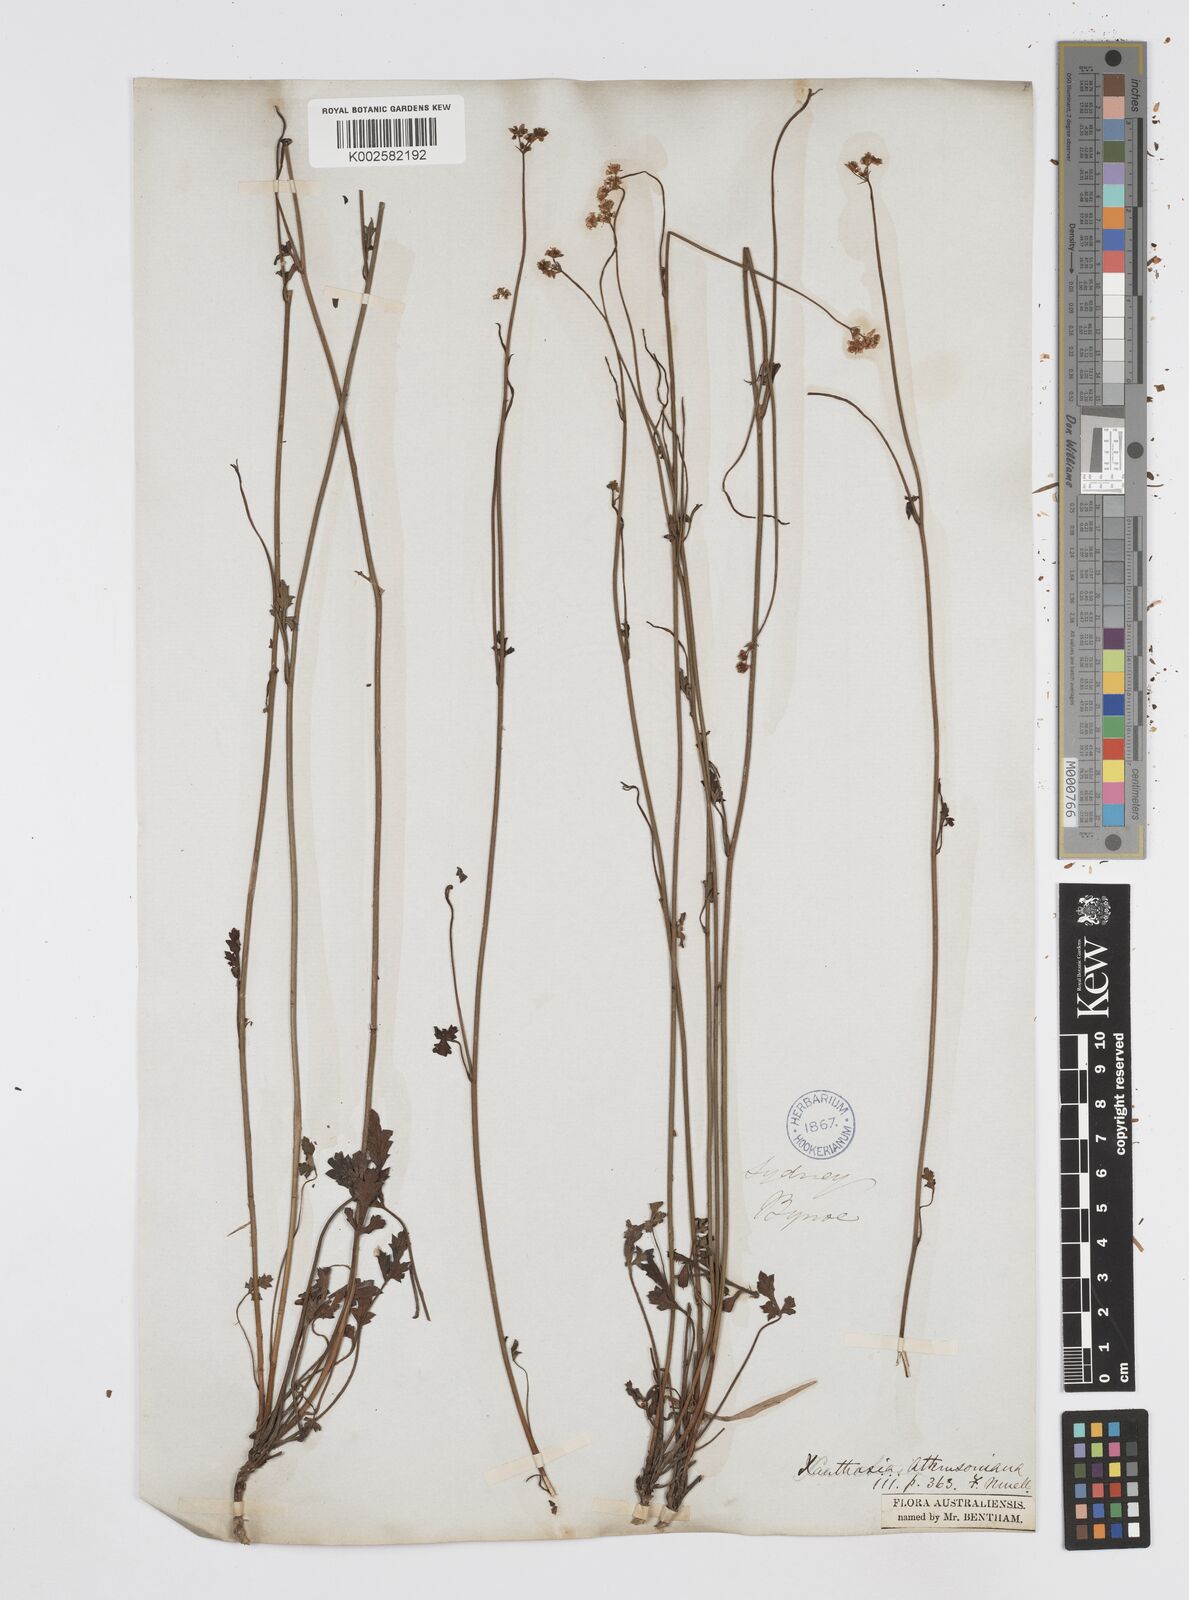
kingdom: Plantae
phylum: Tracheophyta
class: Magnoliopsida
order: Apiales
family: Apiaceae
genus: Xanthosia
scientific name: Xanthosia atkinsoniana
